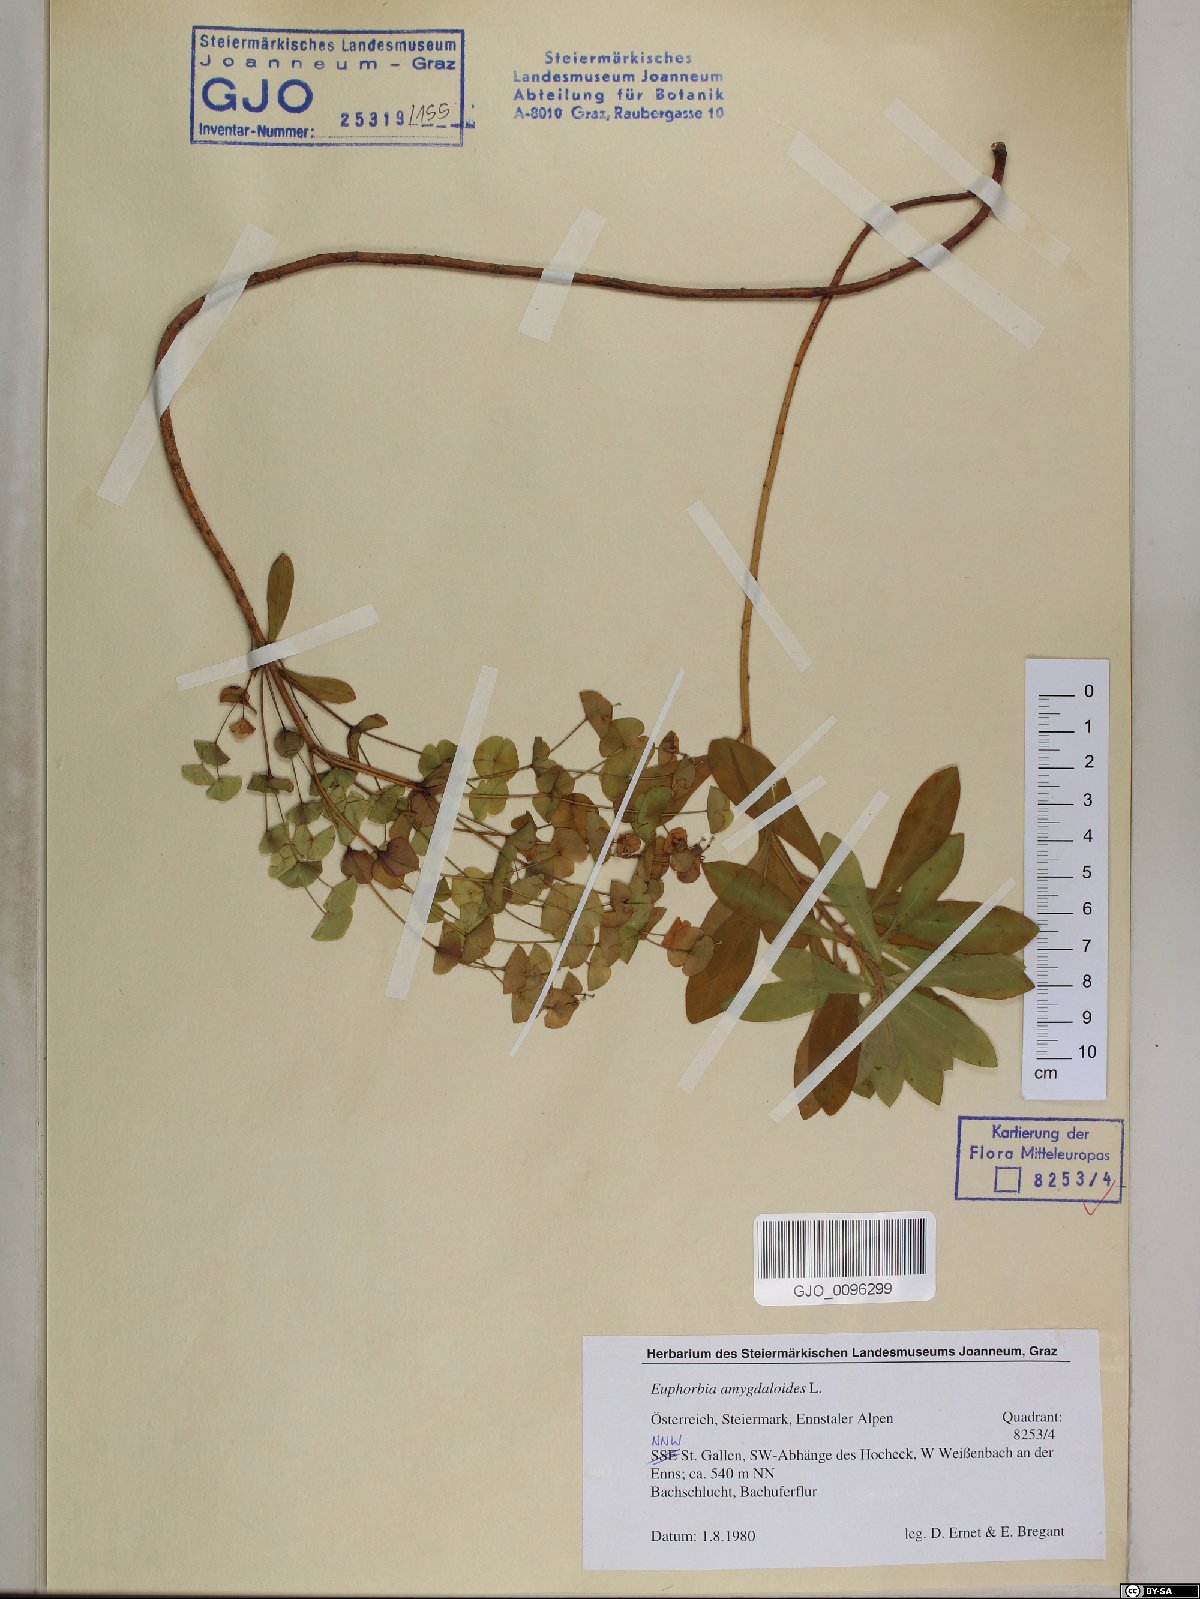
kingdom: Plantae
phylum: Tracheophyta
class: Magnoliopsida
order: Malpighiales
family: Euphorbiaceae
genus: Euphorbia
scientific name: Euphorbia amygdaloides
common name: Wood spurge
